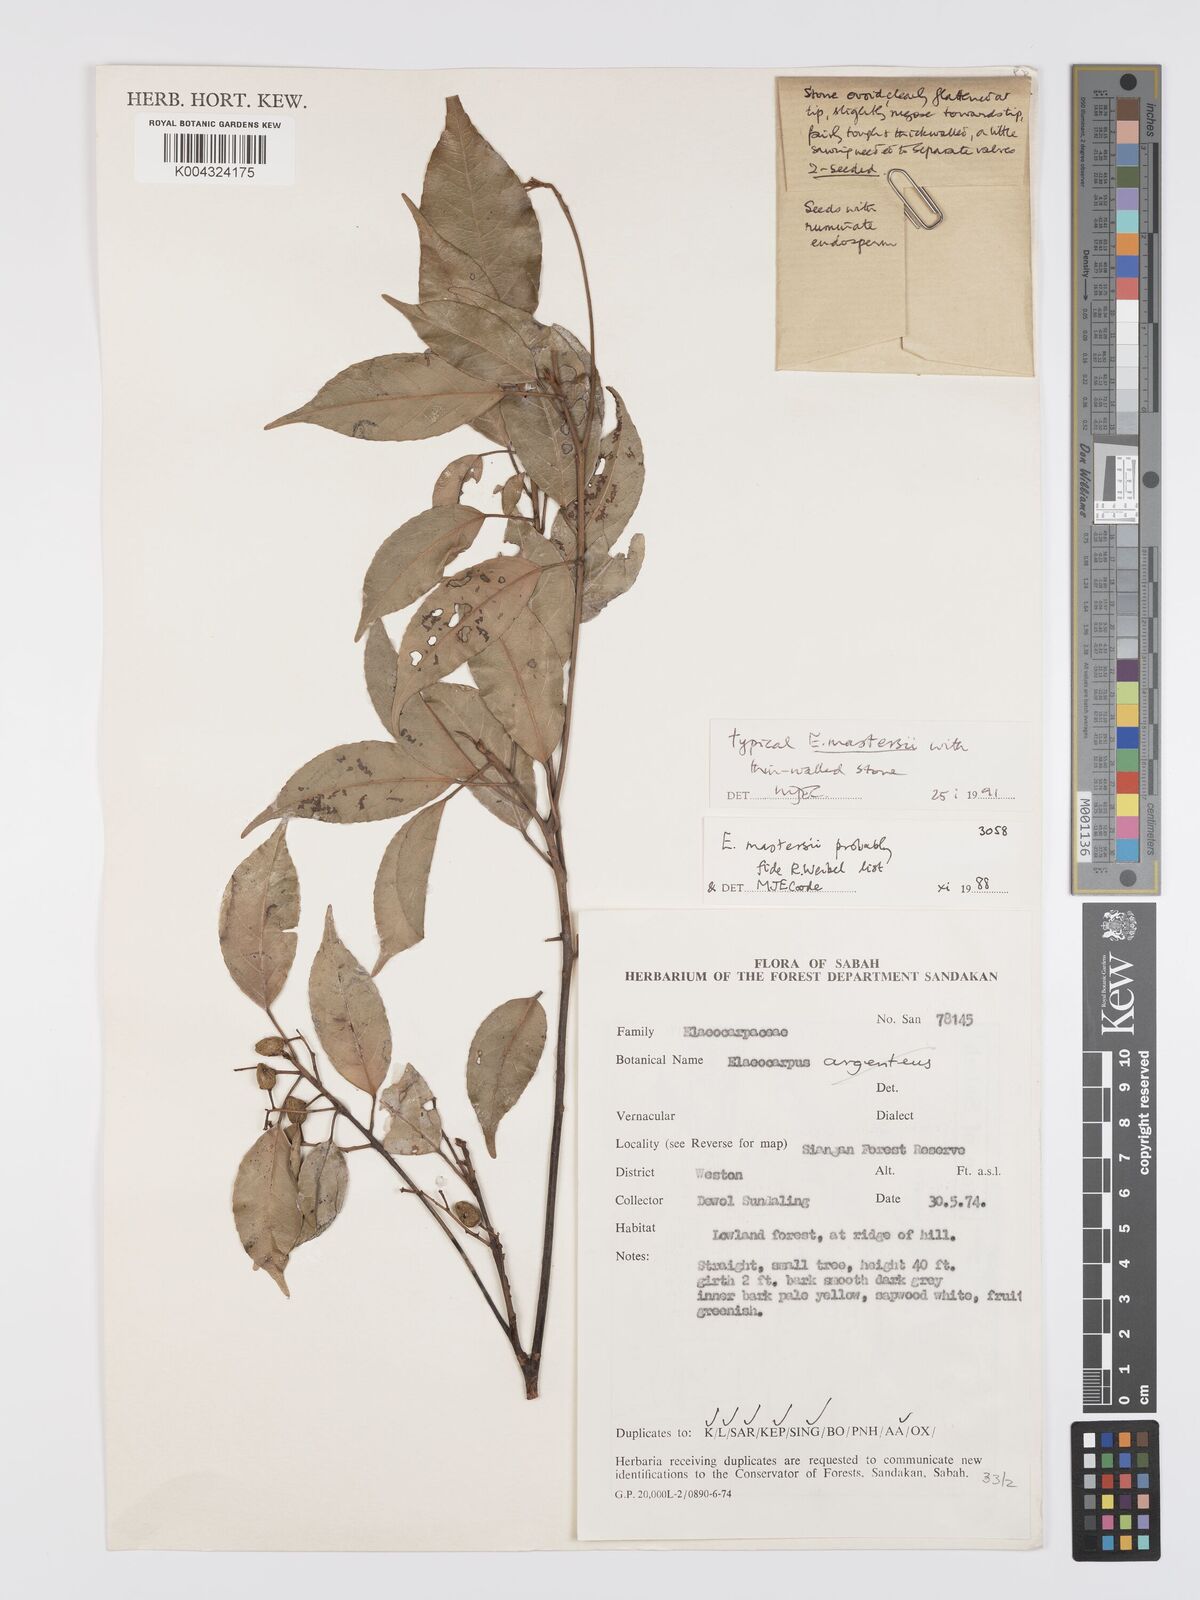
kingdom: Plantae
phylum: Tracheophyta
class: Magnoliopsida
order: Oxalidales
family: Elaeocarpaceae
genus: Elaeocarpus
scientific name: Elaeocarpus mastersii
